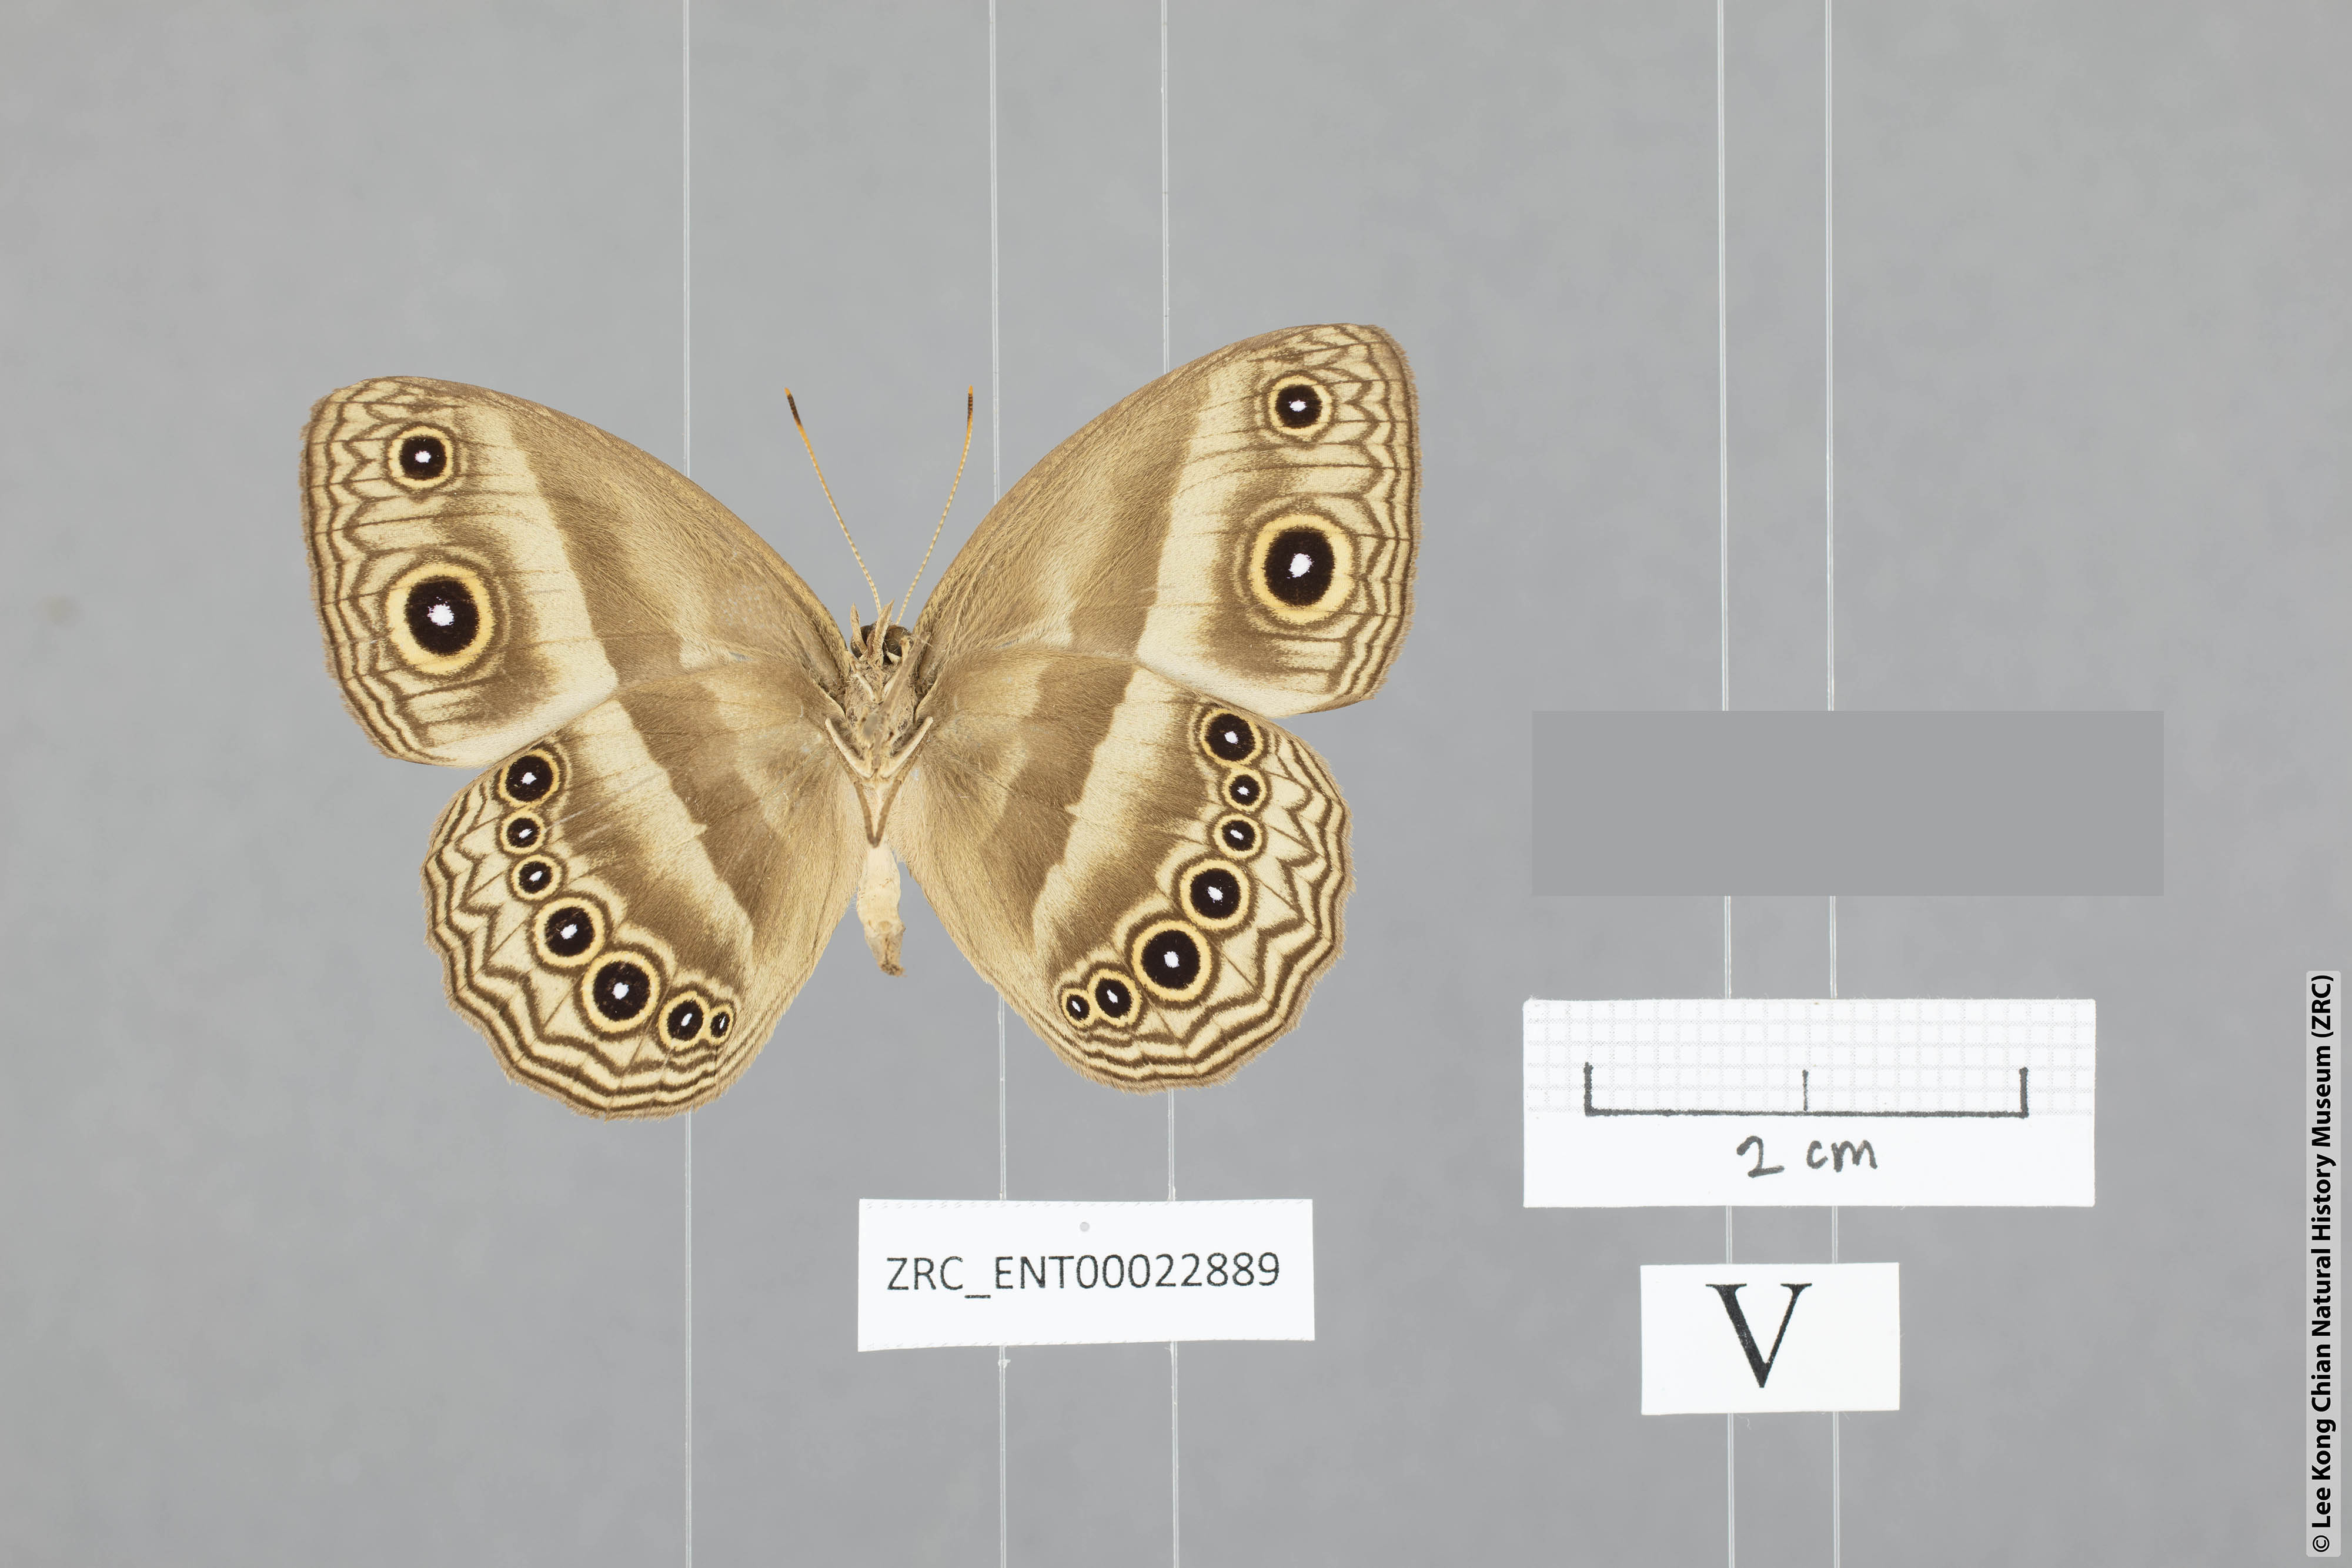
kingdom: Animalia
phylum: Arthropoda
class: Insecta
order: Lepidoptera
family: Nymphalidae
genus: Mycalesis
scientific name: Mycalesis dohertyi
